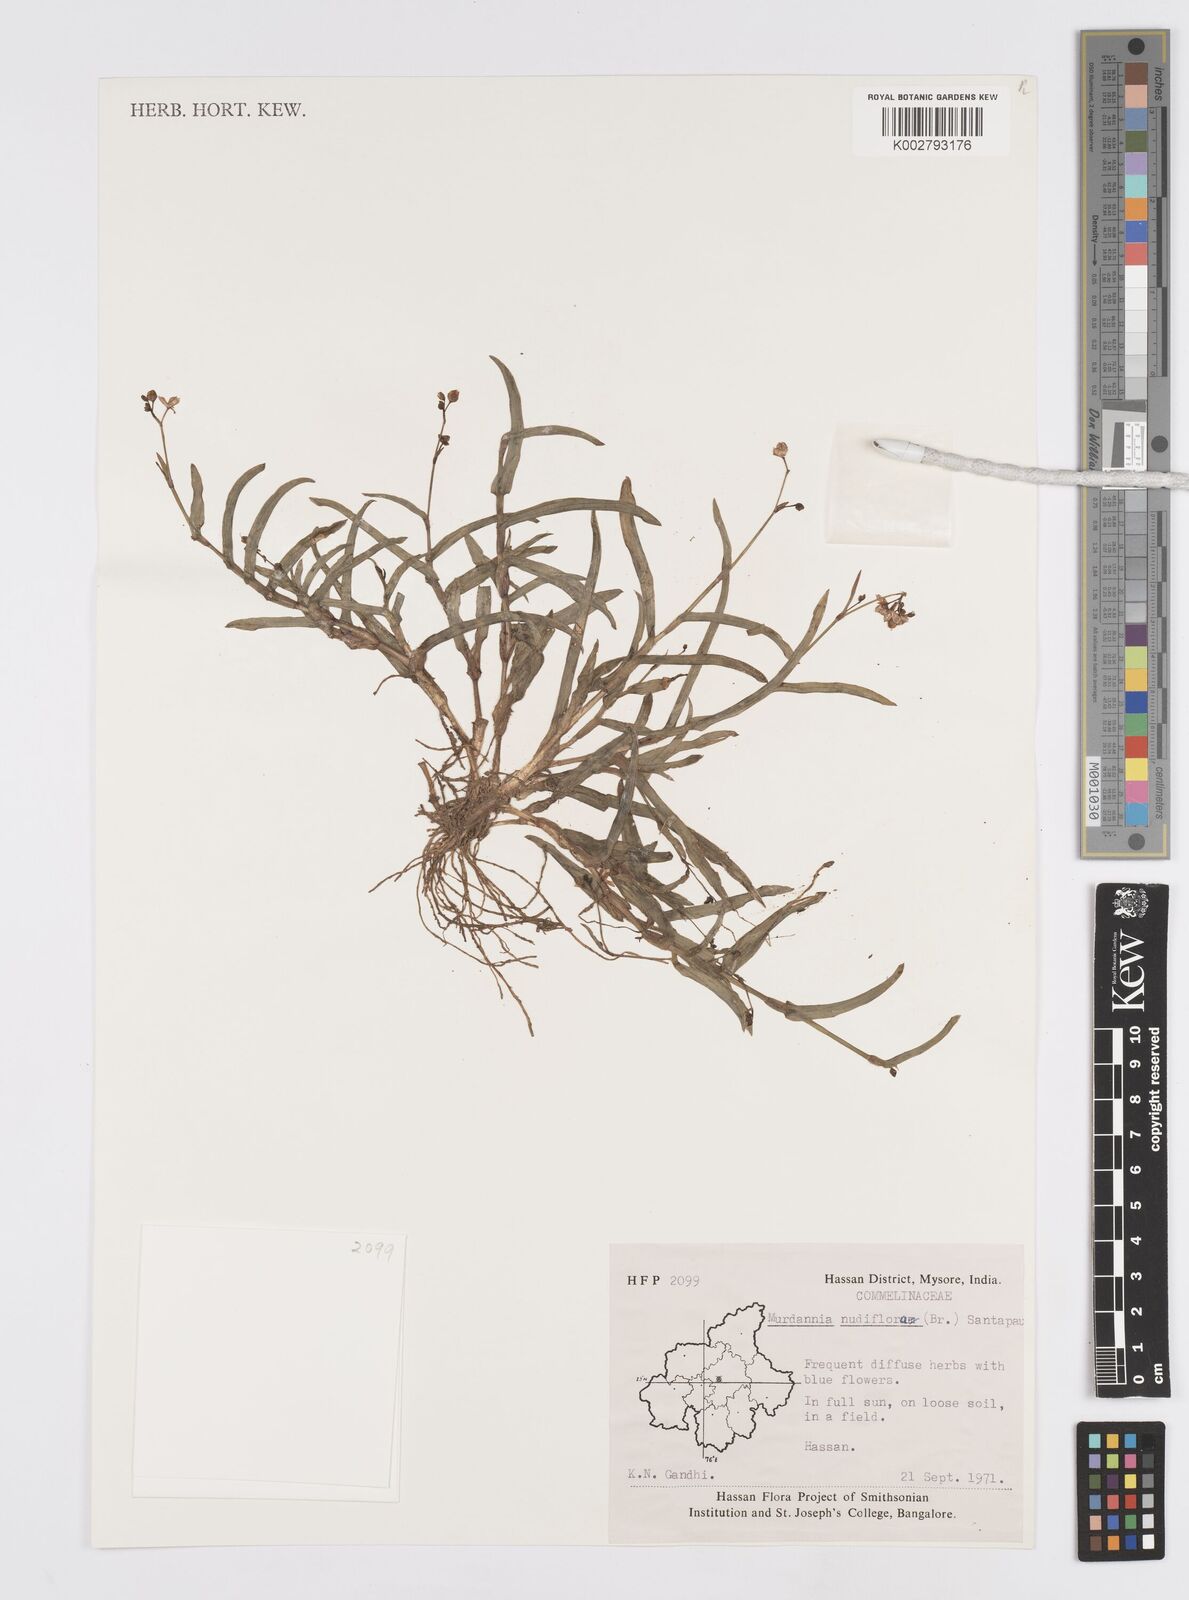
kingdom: Plantae
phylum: Tracheophyta
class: Liliopsida
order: Commelinales
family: Commelinaceae
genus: Murdannia
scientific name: Murdannia nudiflora
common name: Nakedstem dewflower
